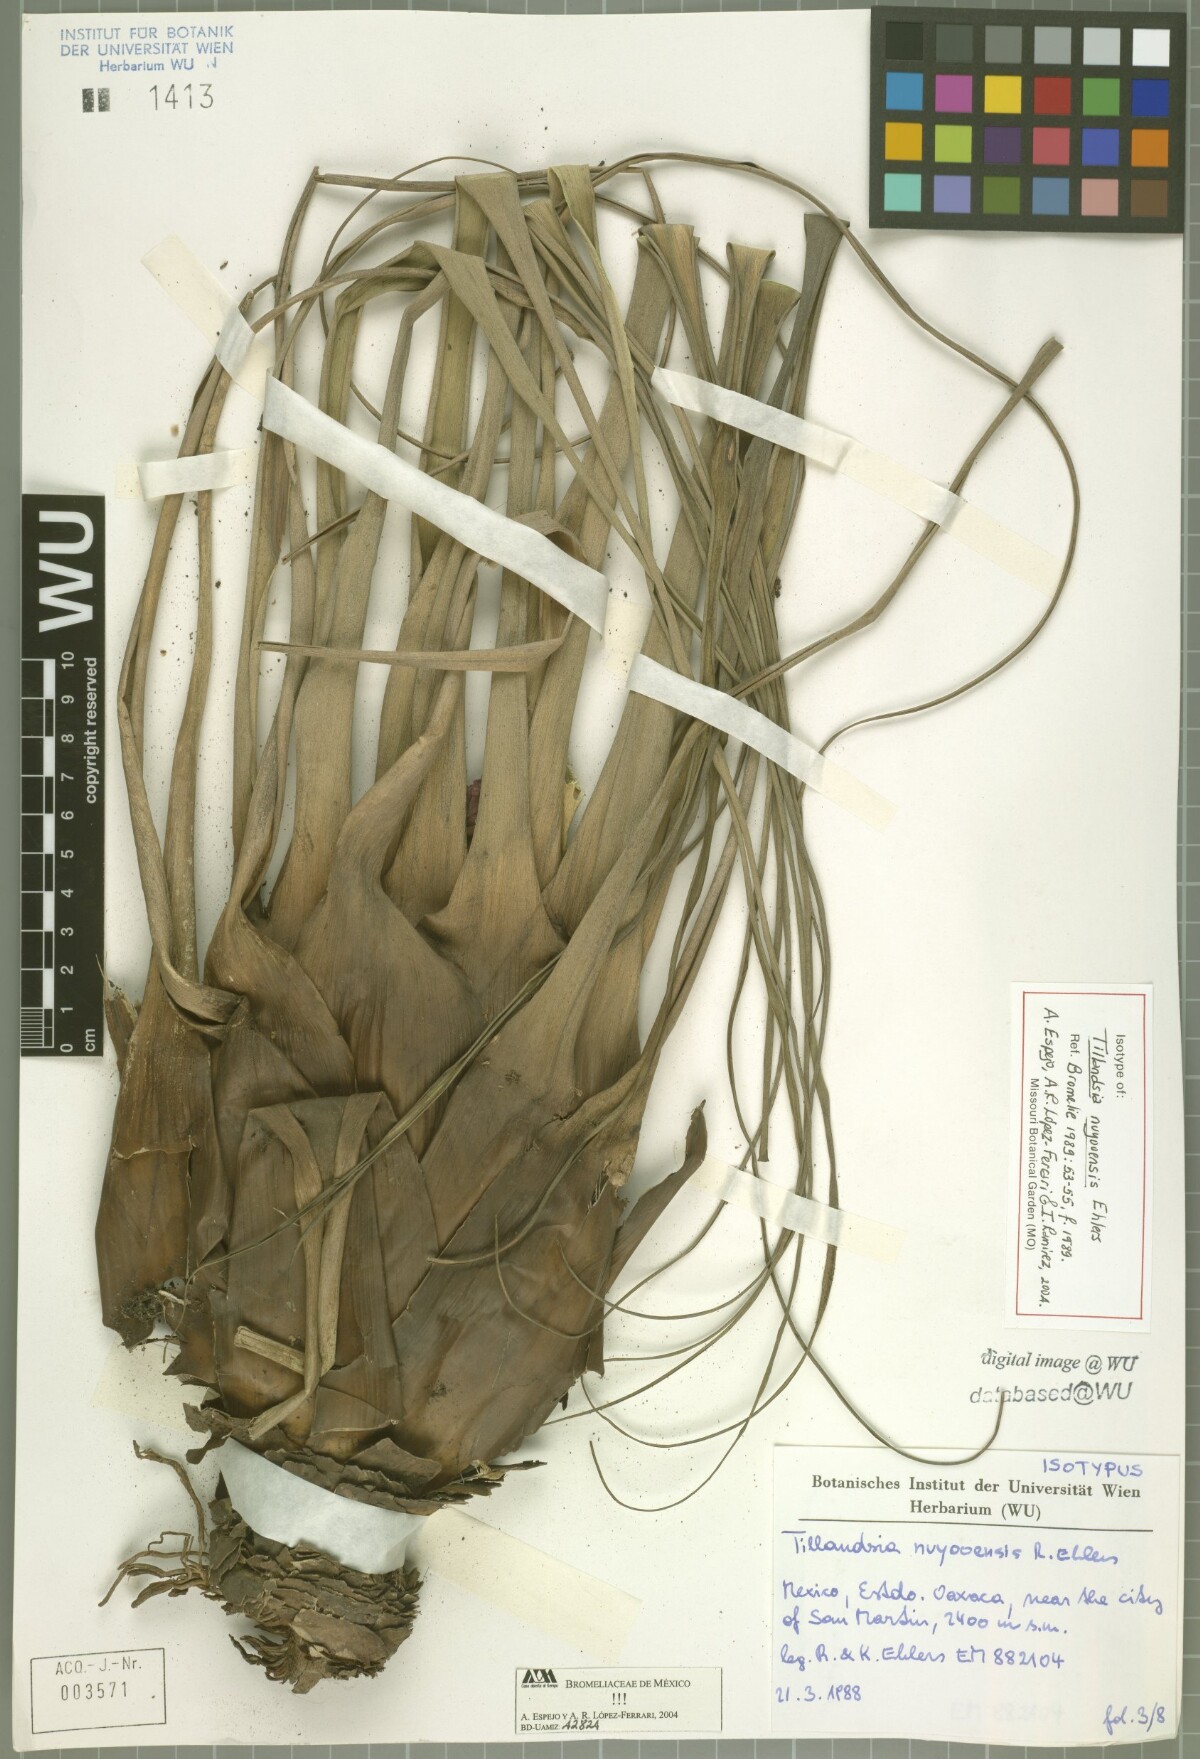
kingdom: Plantae
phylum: Tracheophyta
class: Liliopsida
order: Poales
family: Bromeliaceae
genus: Tillandsia
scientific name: Tillandsia nuyooensis
